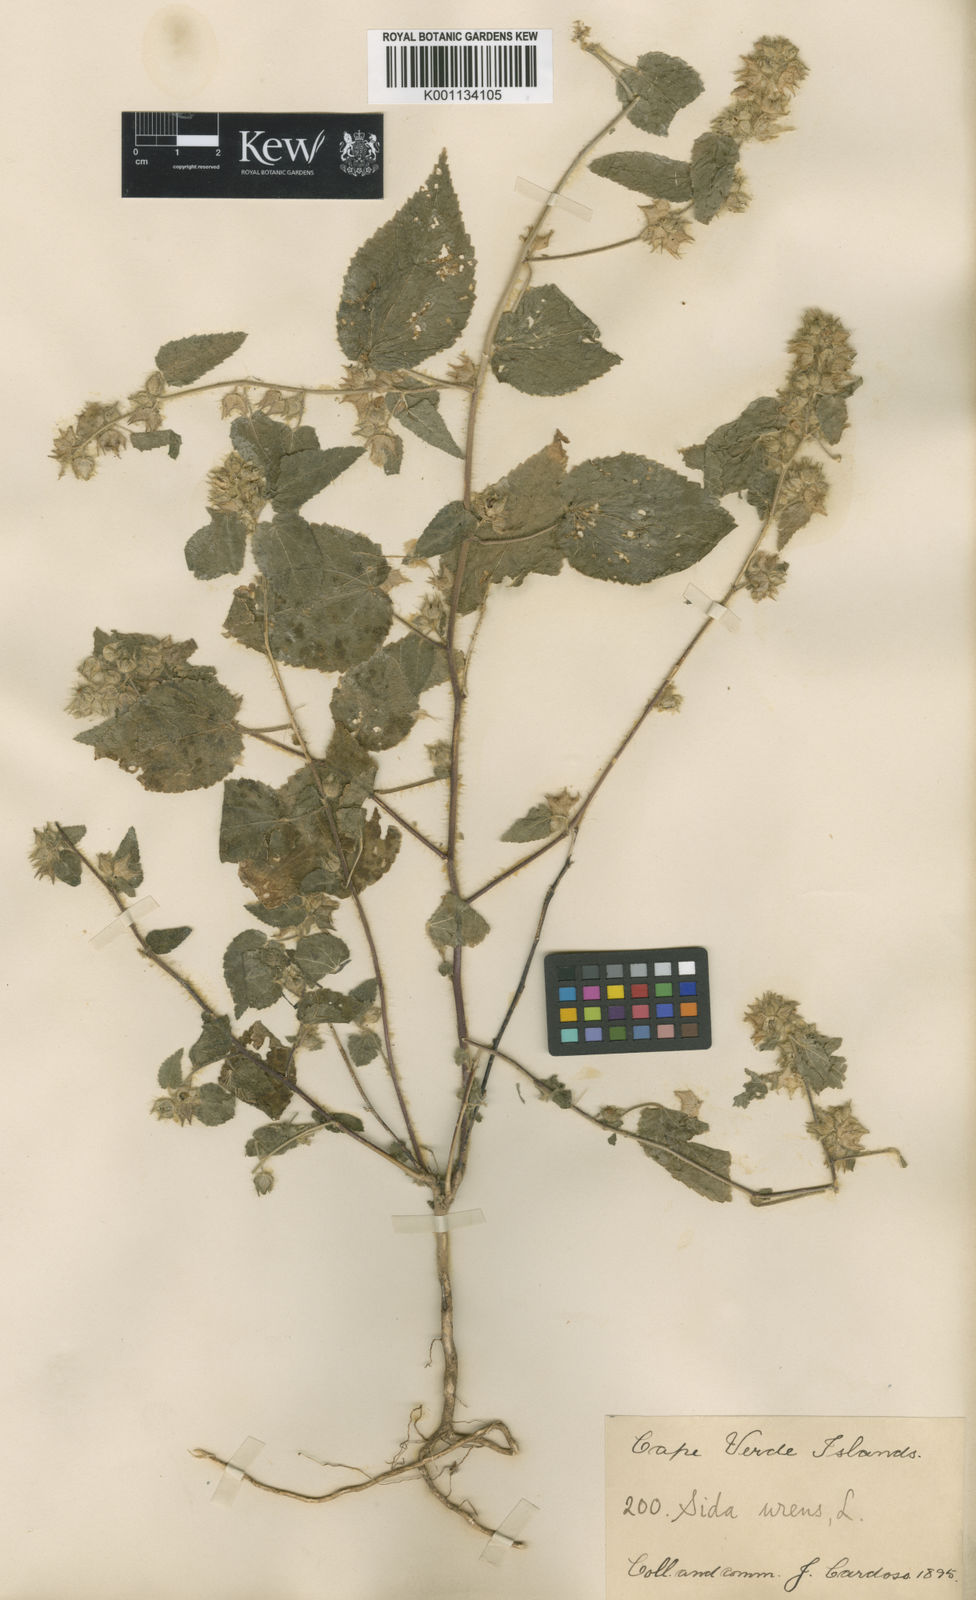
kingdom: Plantae
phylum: Tracheophyta
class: Magnoliopsida
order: Malvales
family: Malvaceae
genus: Sida
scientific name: Sida urens
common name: Tropical fanpetals
